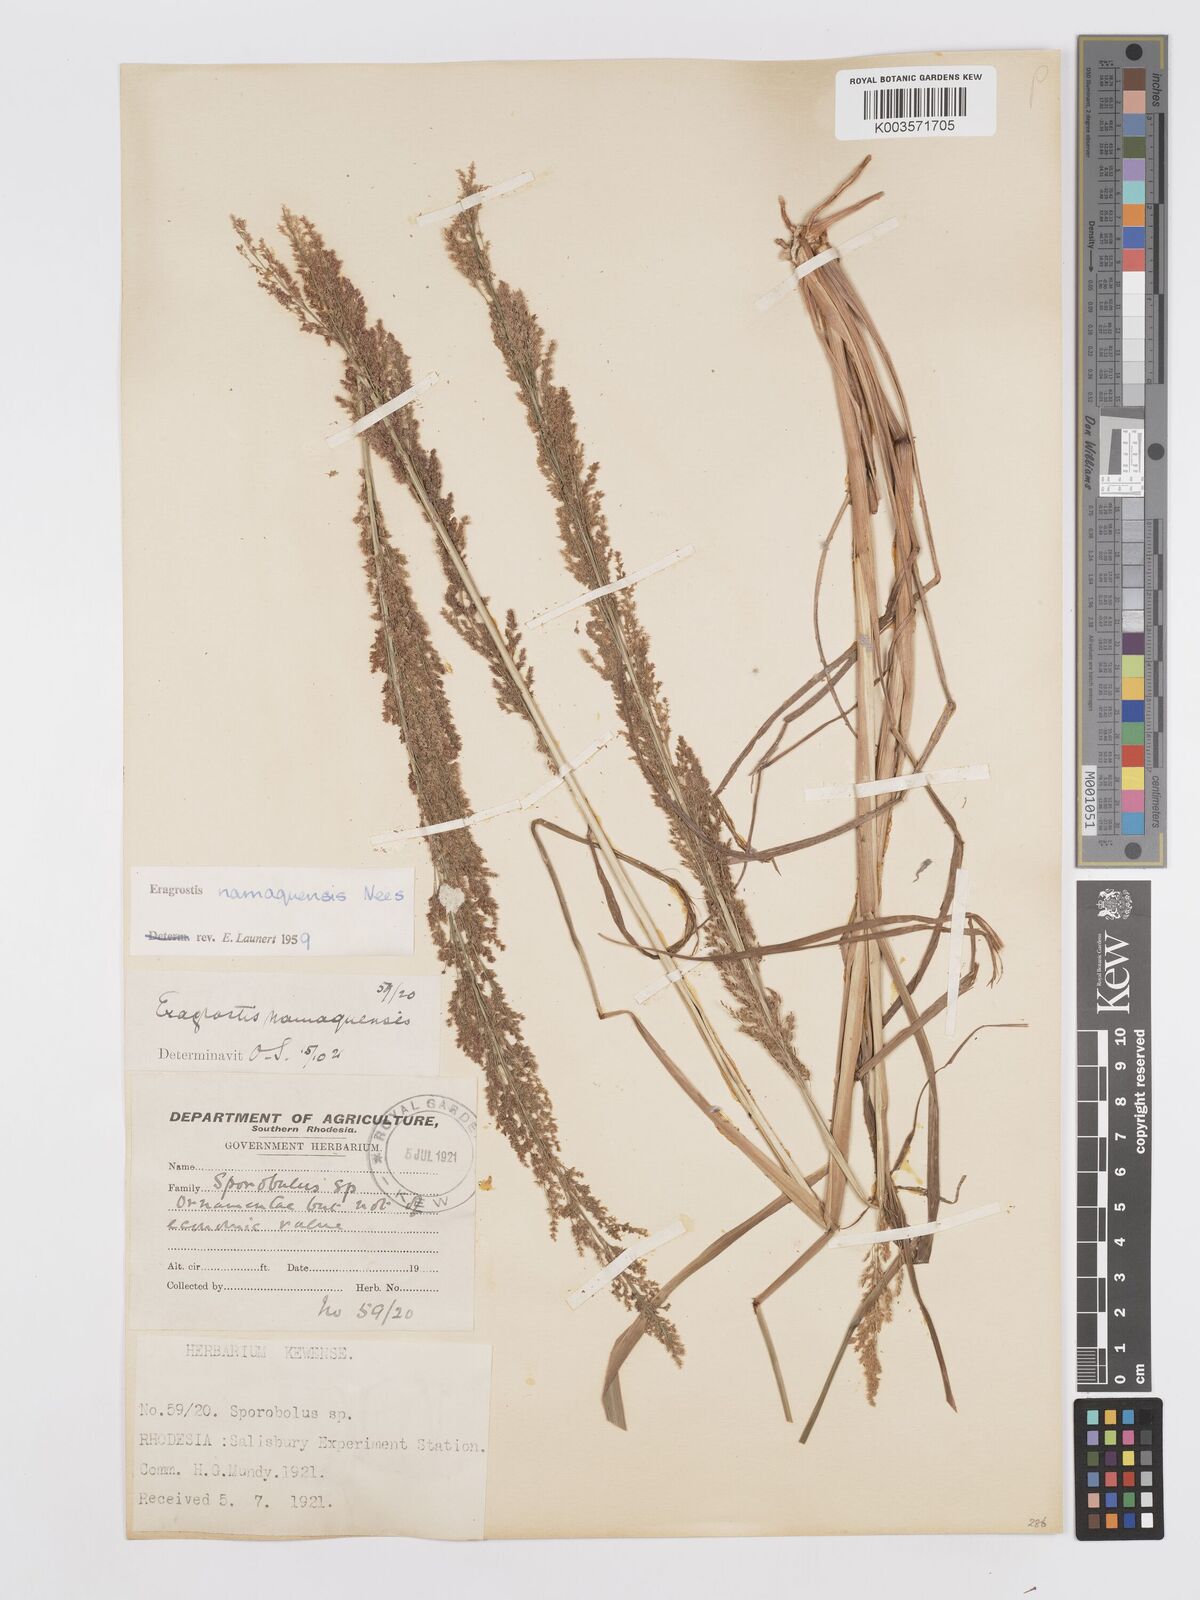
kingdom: Plantae
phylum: Tracheophyta
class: Liliopsida
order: Poales
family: Poaceae
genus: Eragrostis
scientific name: Eragrostis japonica
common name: Pond lovegrass
